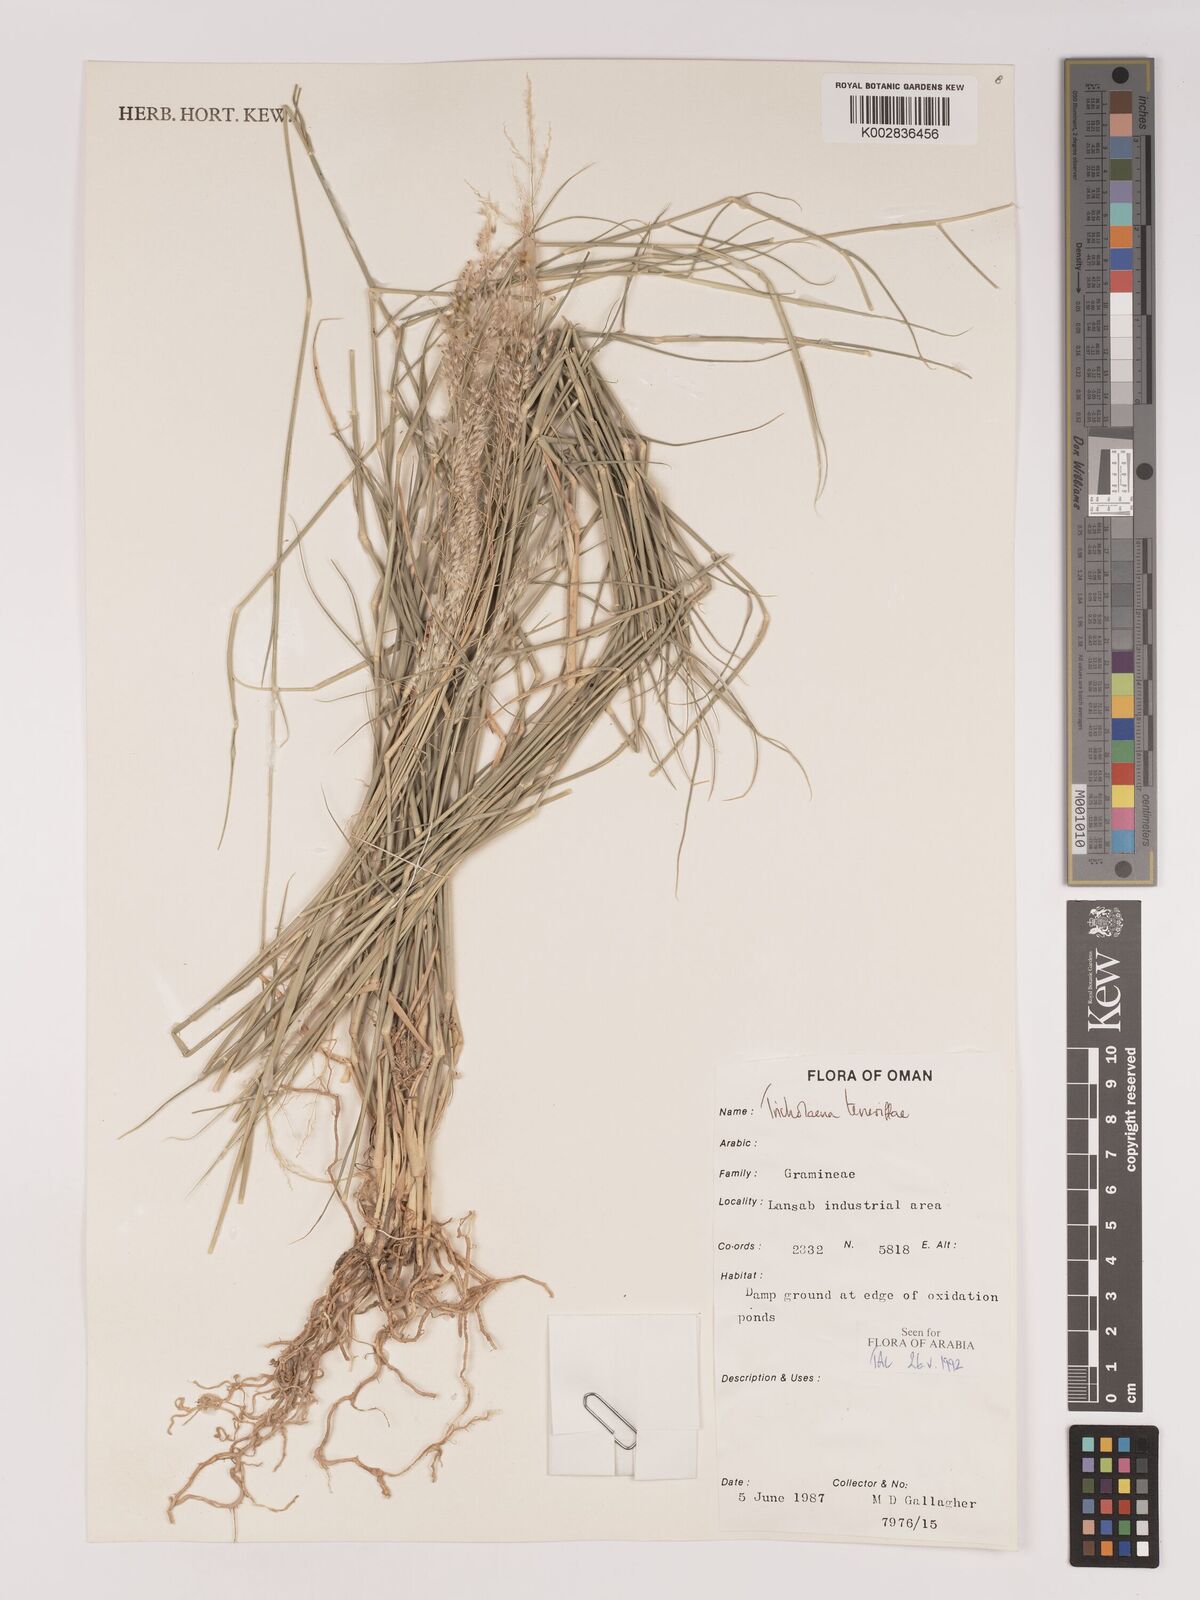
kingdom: Plantae
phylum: Tracheophyta
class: Liliopsida
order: Poales
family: Poaceae
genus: Tricholaena
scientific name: Tricholaena teneriffae
